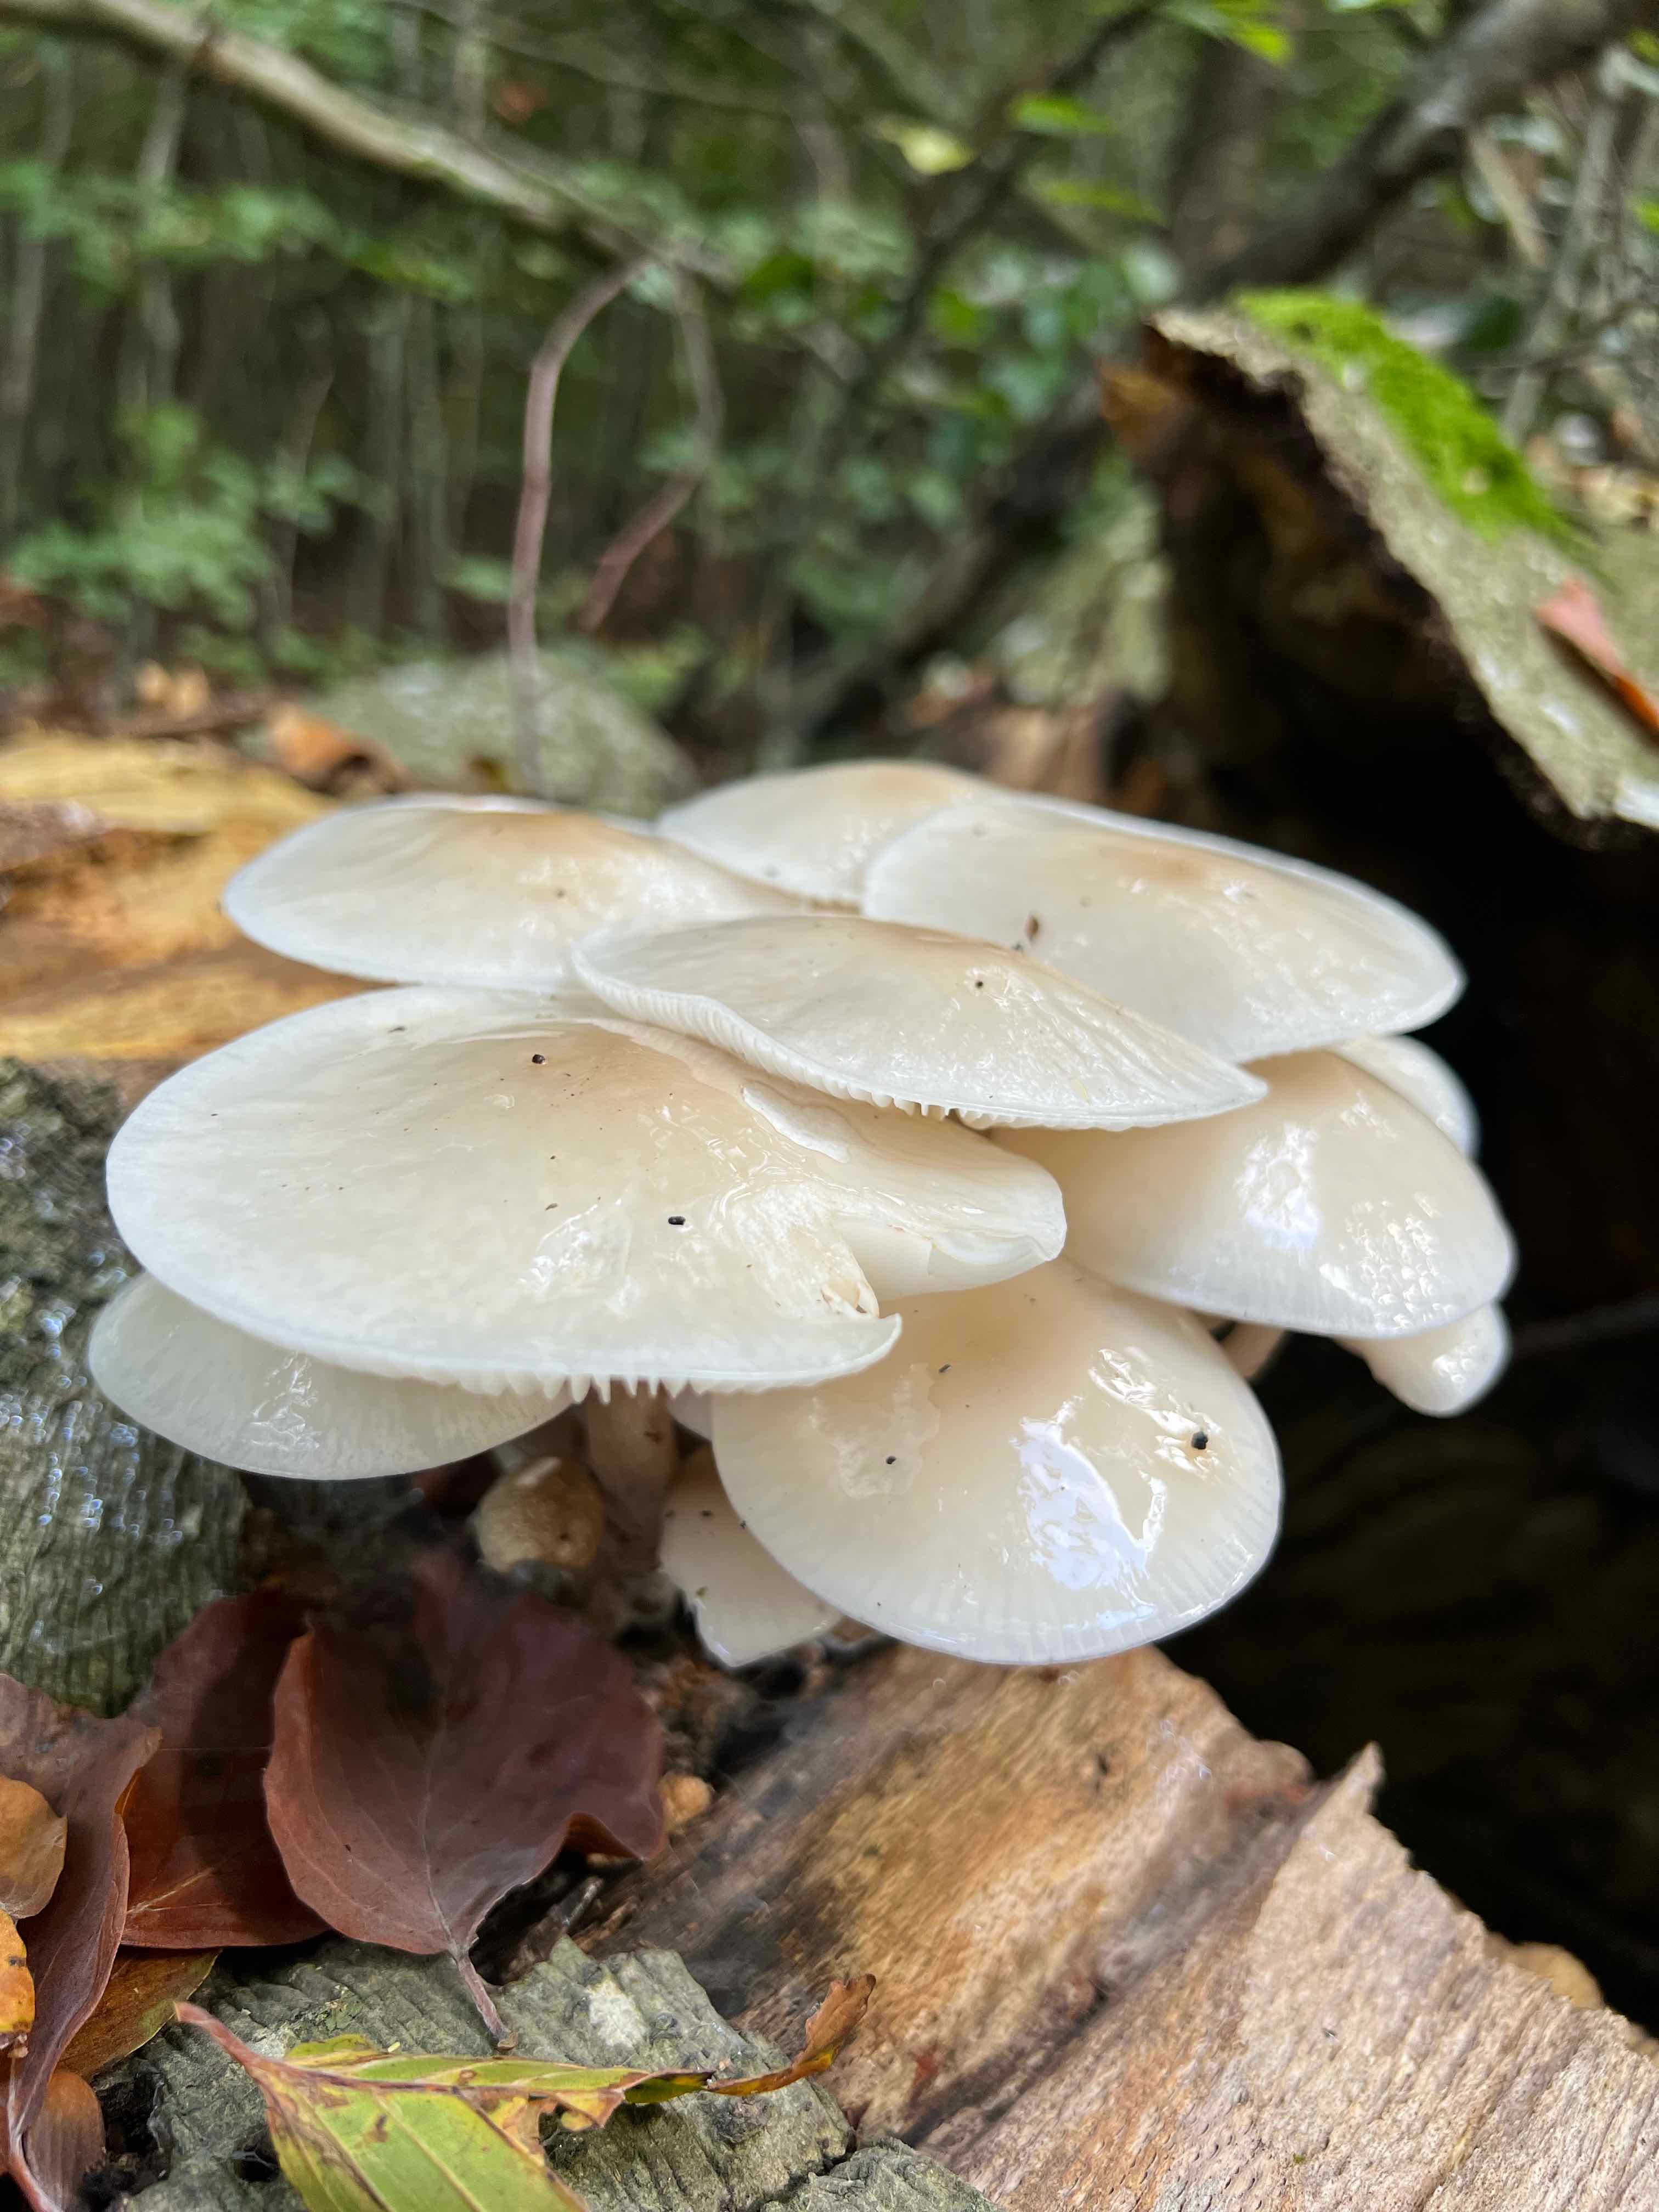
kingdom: Fungi
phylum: Basidiomycota
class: Agaricomycetes
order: Agaricales
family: Physalacriaceae
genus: Mucidula
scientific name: Mucidula mucida
